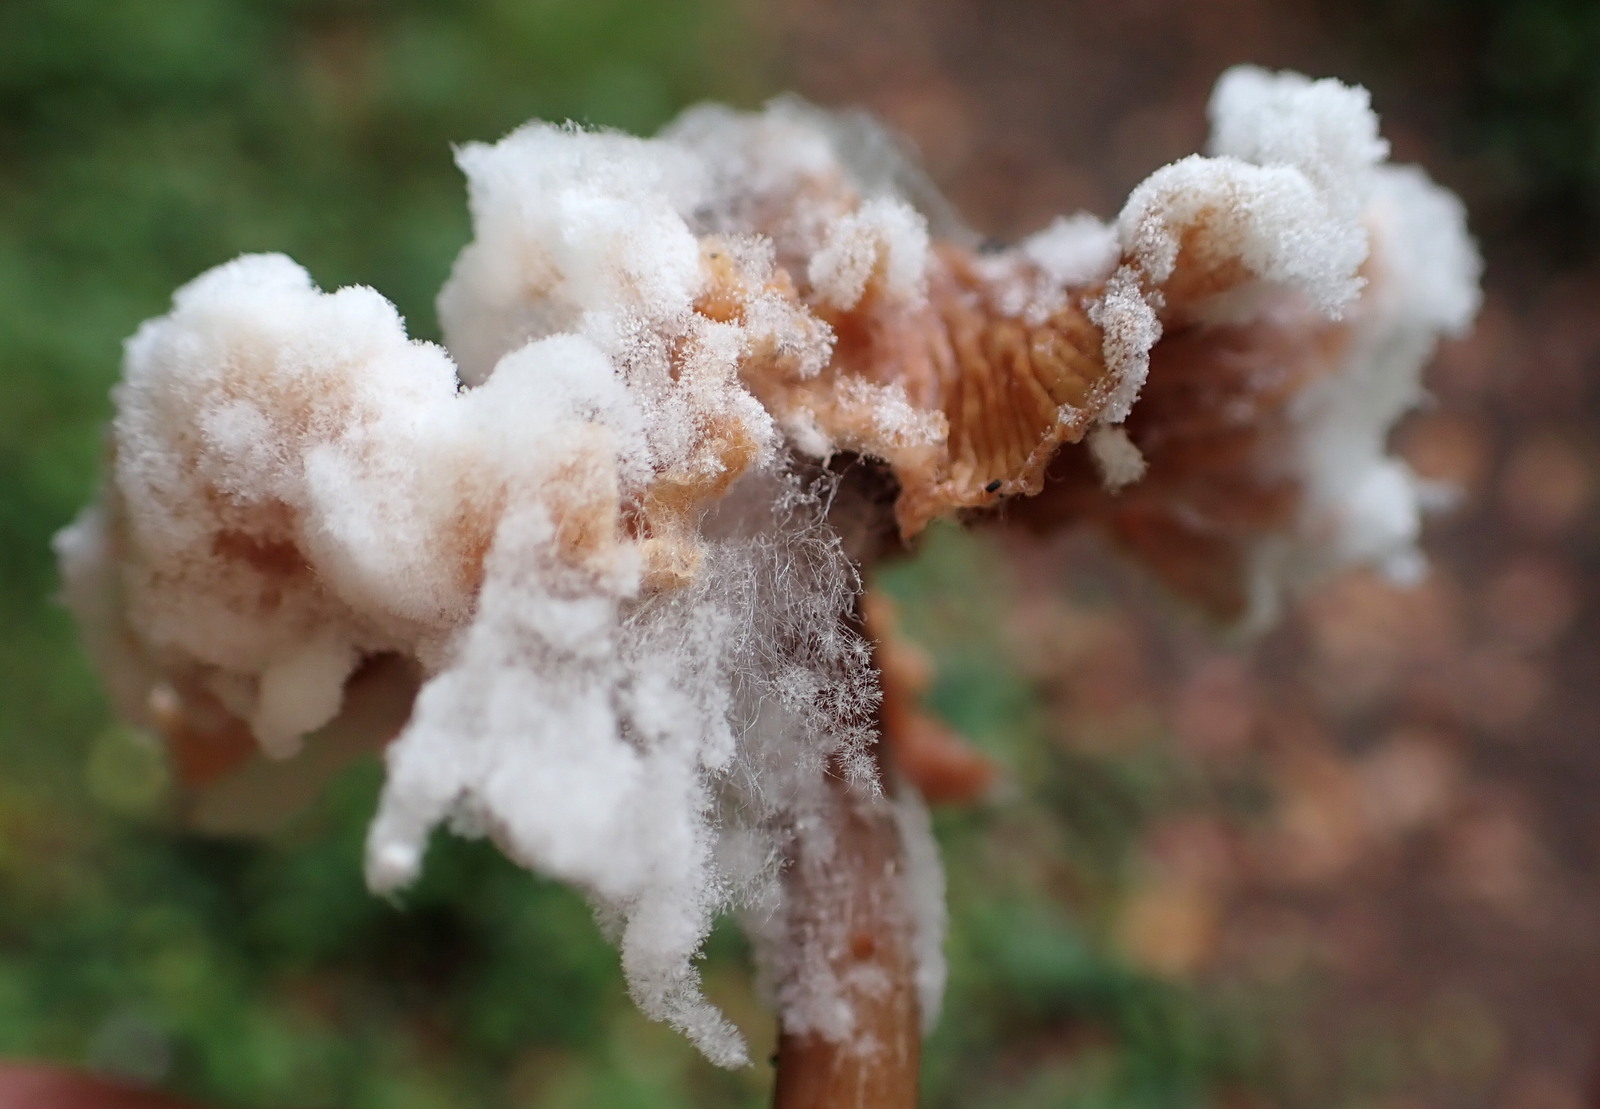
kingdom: Fungi
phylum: Mucoromycota
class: Mucoromycetes
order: Mucorales
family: Rhizopodaceae
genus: Syzygites
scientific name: Syzygites megalocarpus
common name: nissenål
